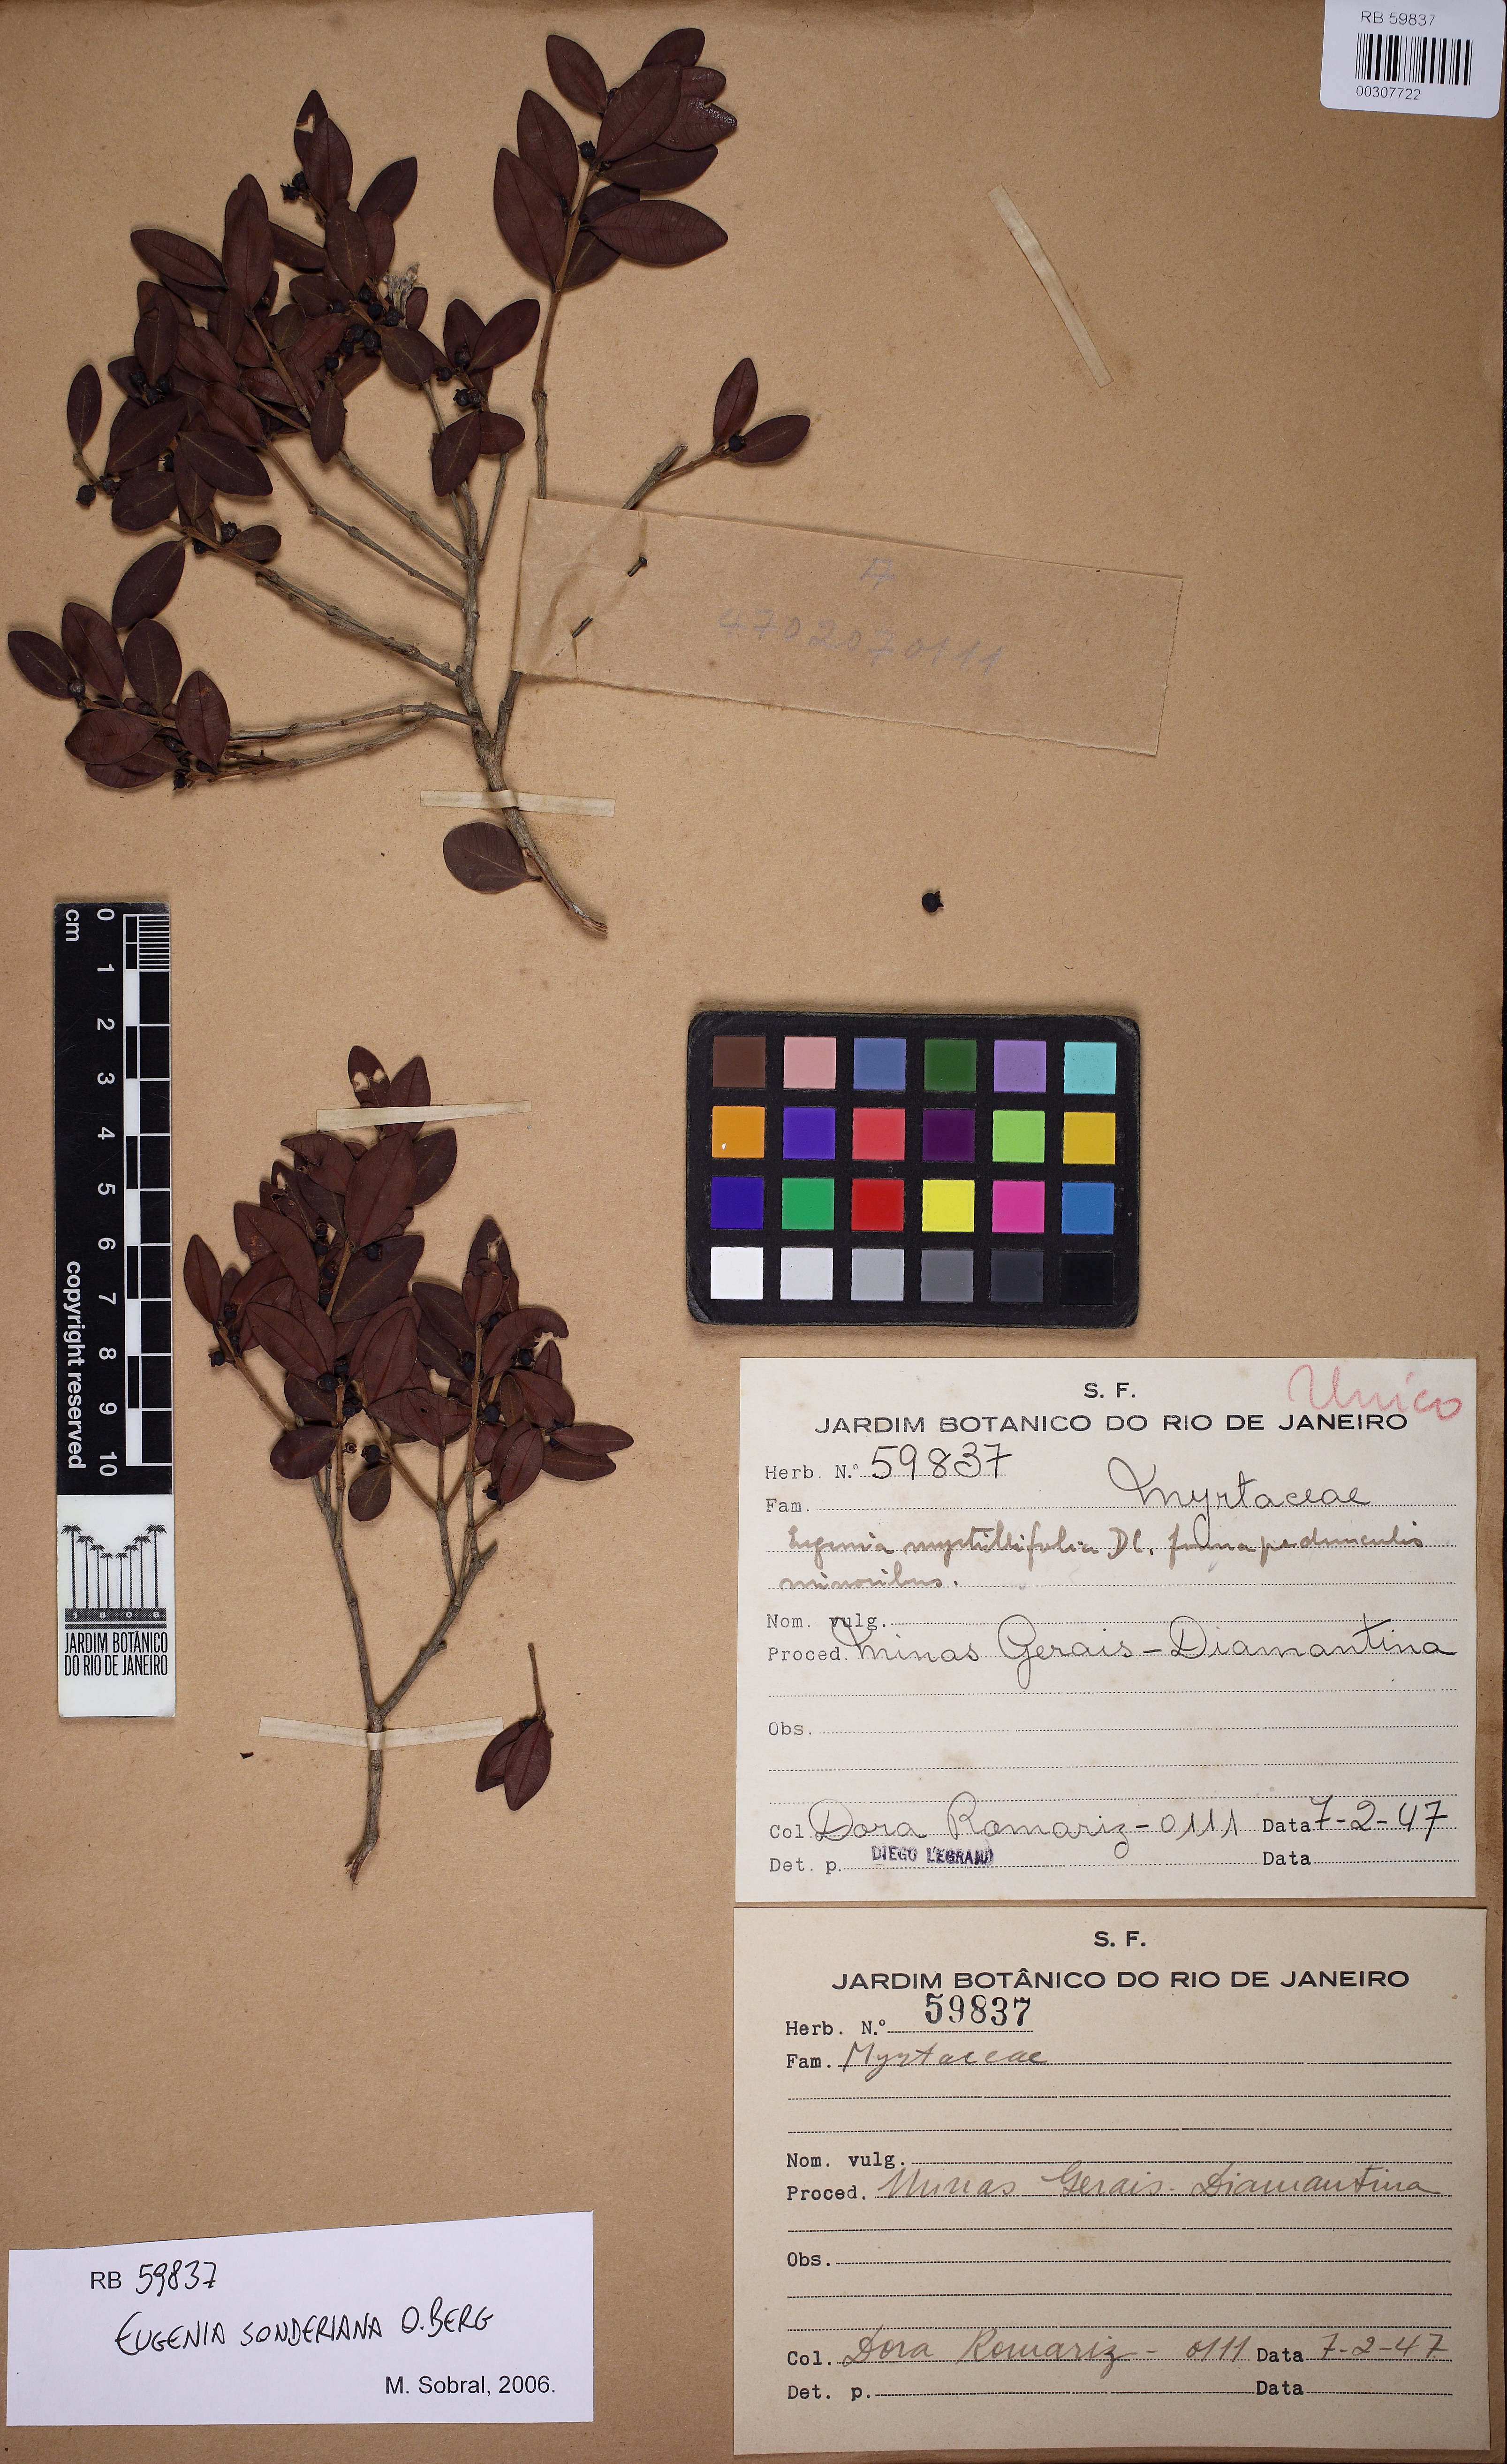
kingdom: Plantae
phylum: Tracheophyta
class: Magnoliopsida
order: Myrtales
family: Myrtaceae
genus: Eugenia
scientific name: Eugenia sonderiana
